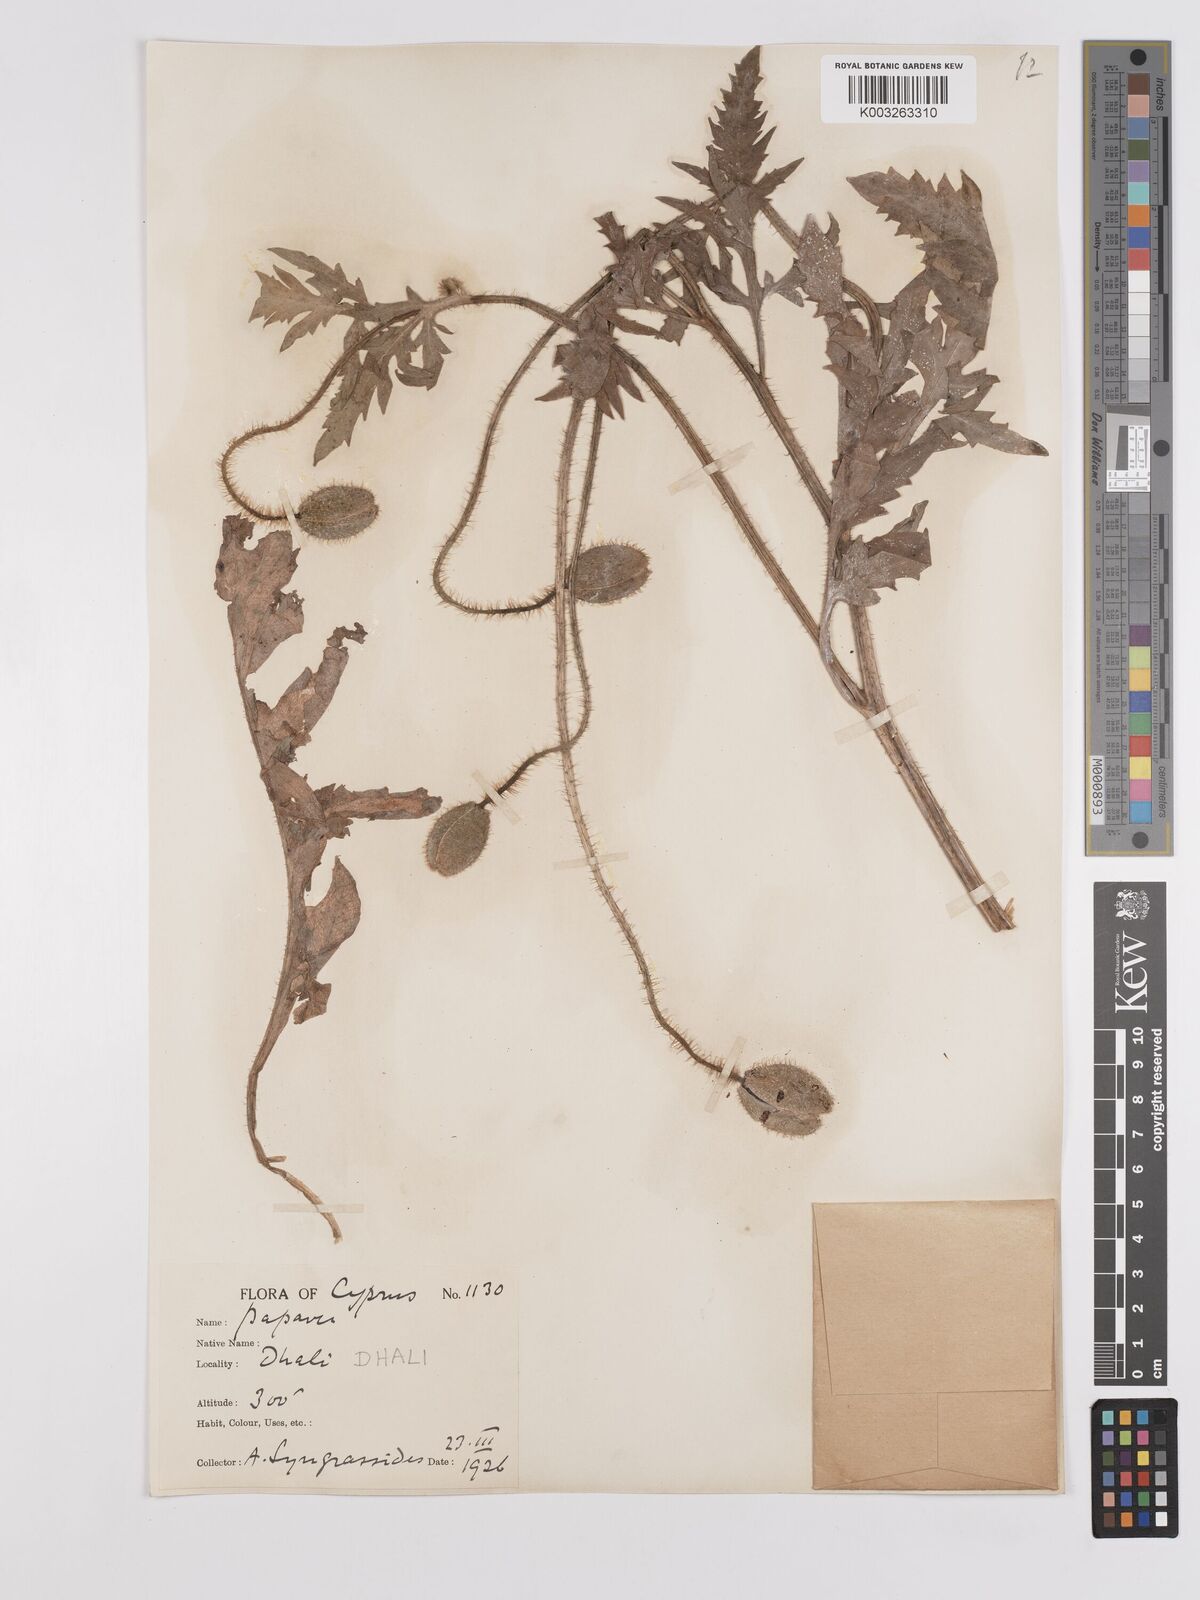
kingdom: Plantae
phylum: Tracheophyta
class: Magnoliopsida
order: Ranunculales
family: Papaveraceae
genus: Papaver
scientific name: Papaver rhoeas
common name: Corn poppy
